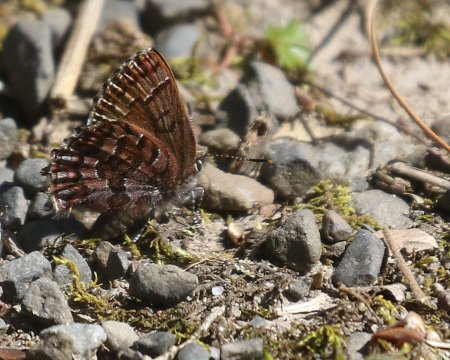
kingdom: Animalia
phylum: Arthropoda
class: Insecta
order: Lepidoptera
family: Lycaenidae
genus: Incisalia
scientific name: Incisalia niphon
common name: Eastern Pine Elfin
